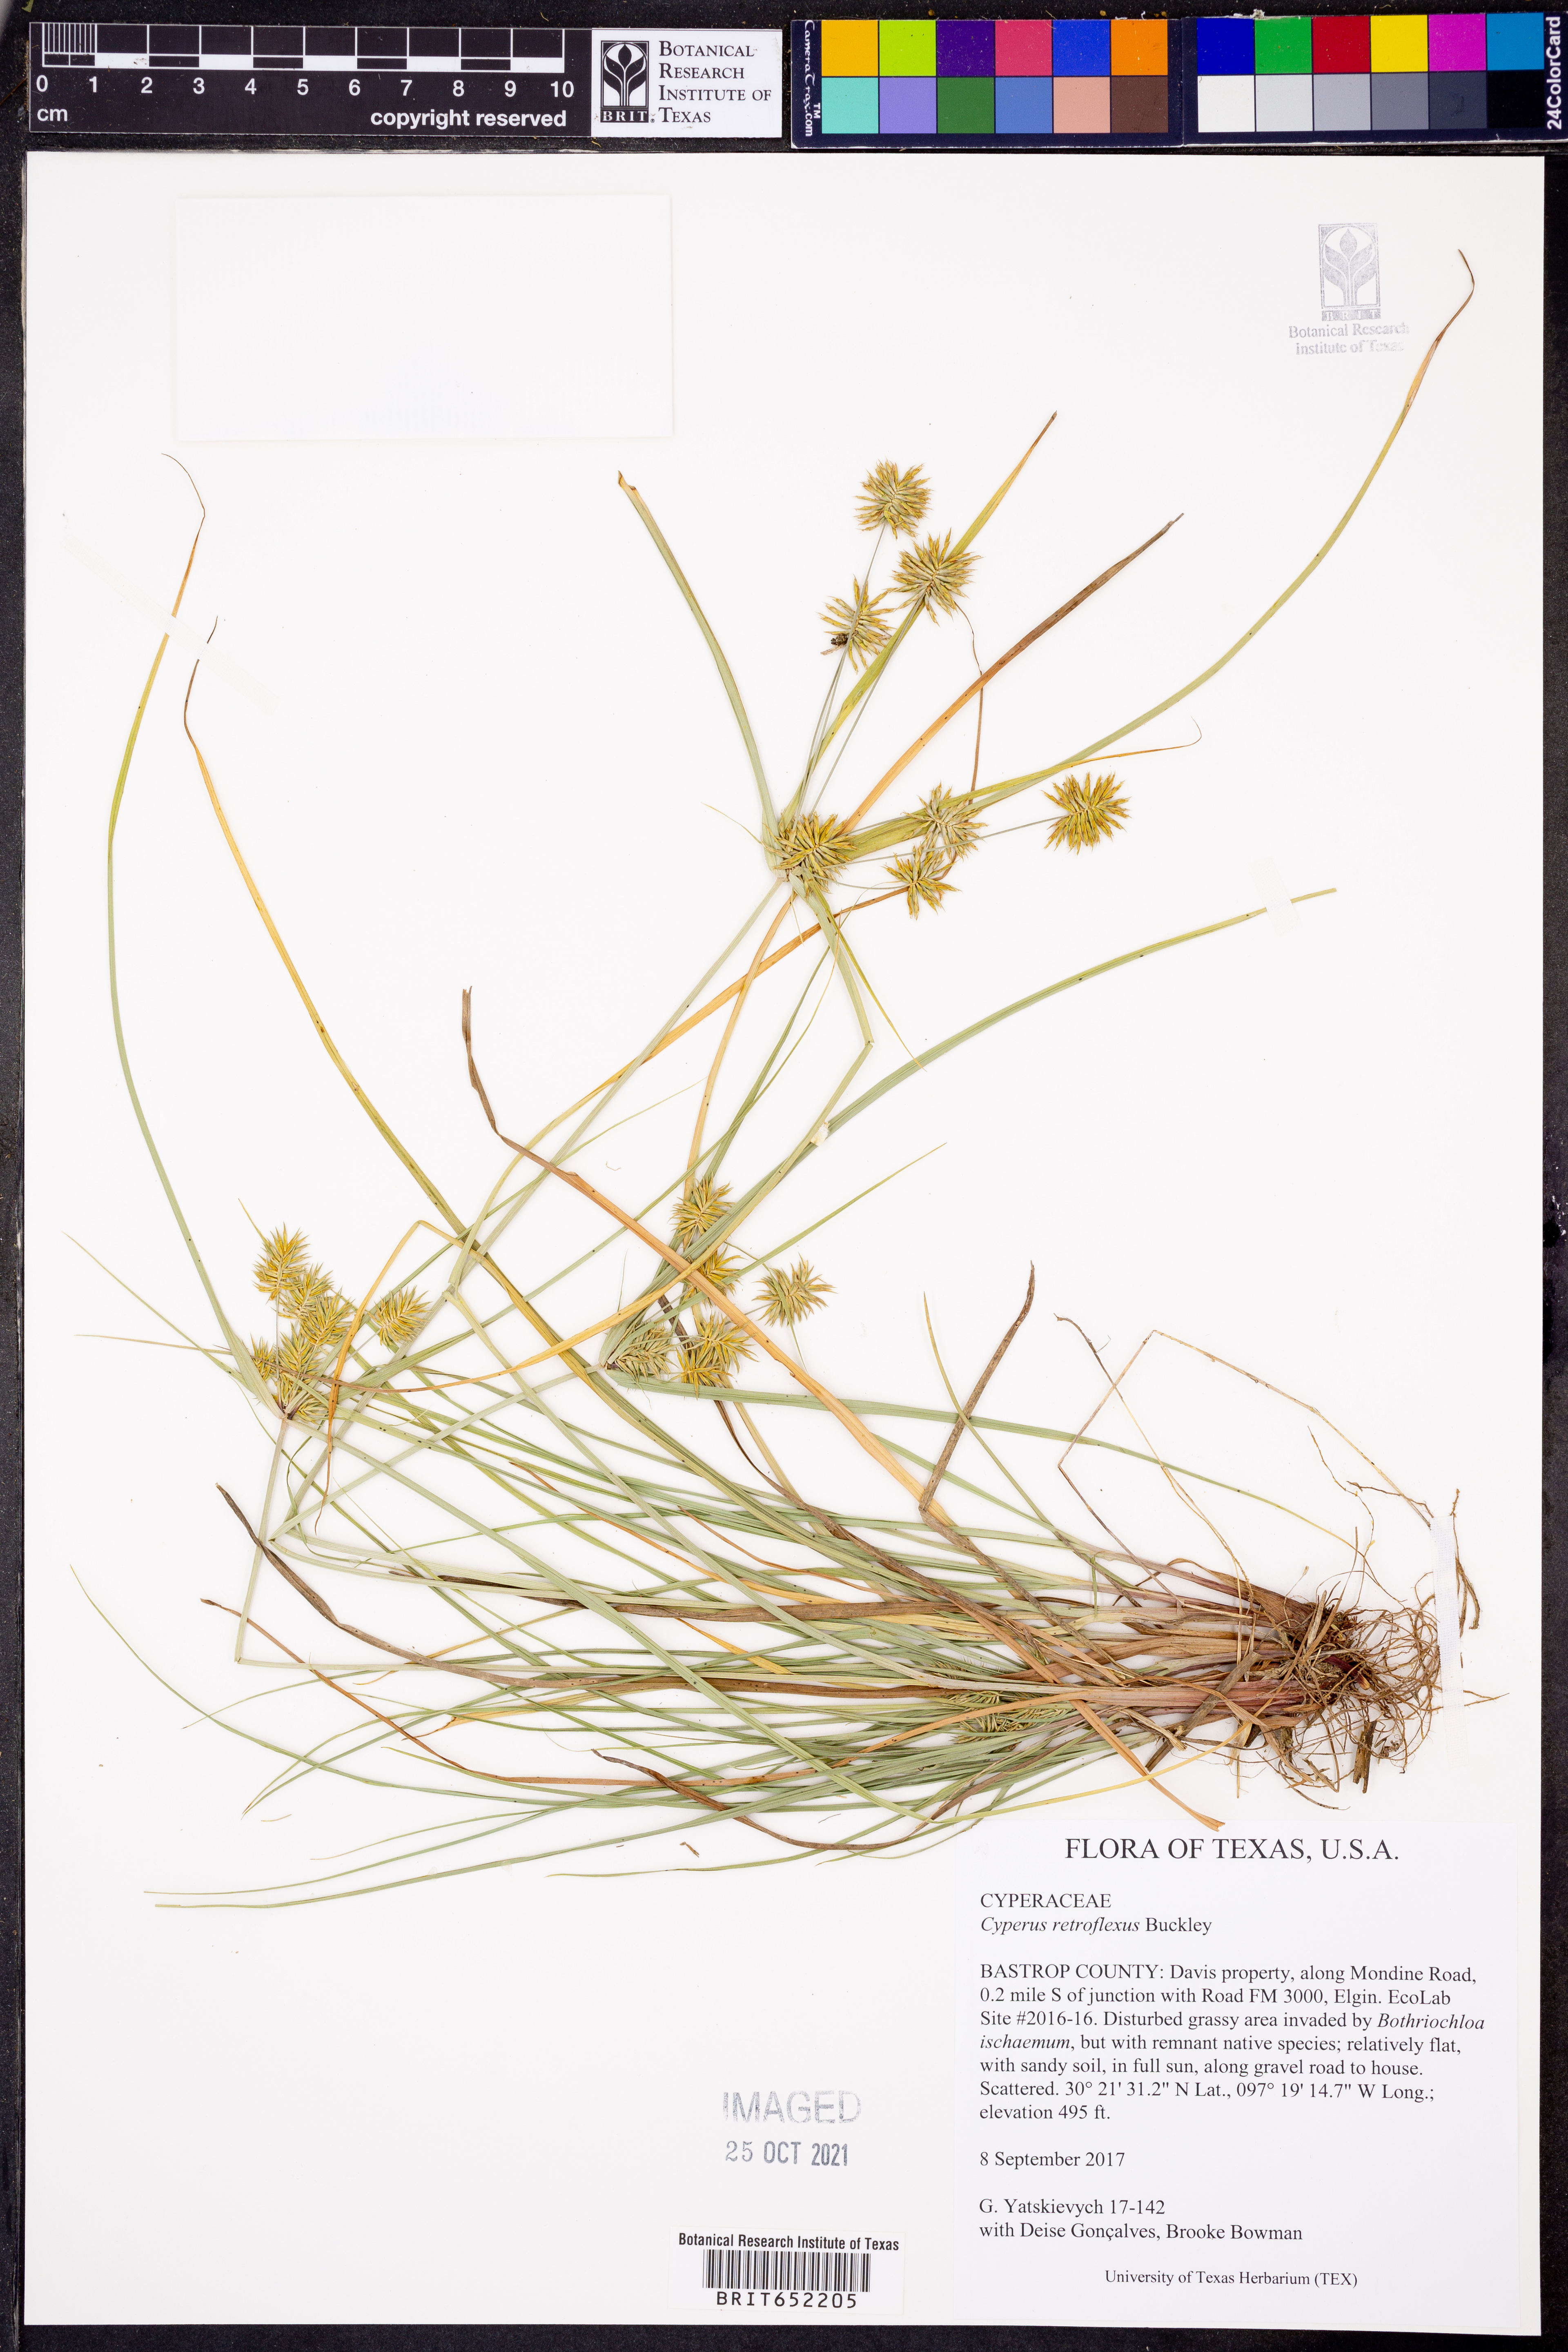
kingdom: Plantae
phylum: Tracheophyta
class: Liliopsida
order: Poales
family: Cyperaceae
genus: Cyperus
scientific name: Cyperus retroflexus
